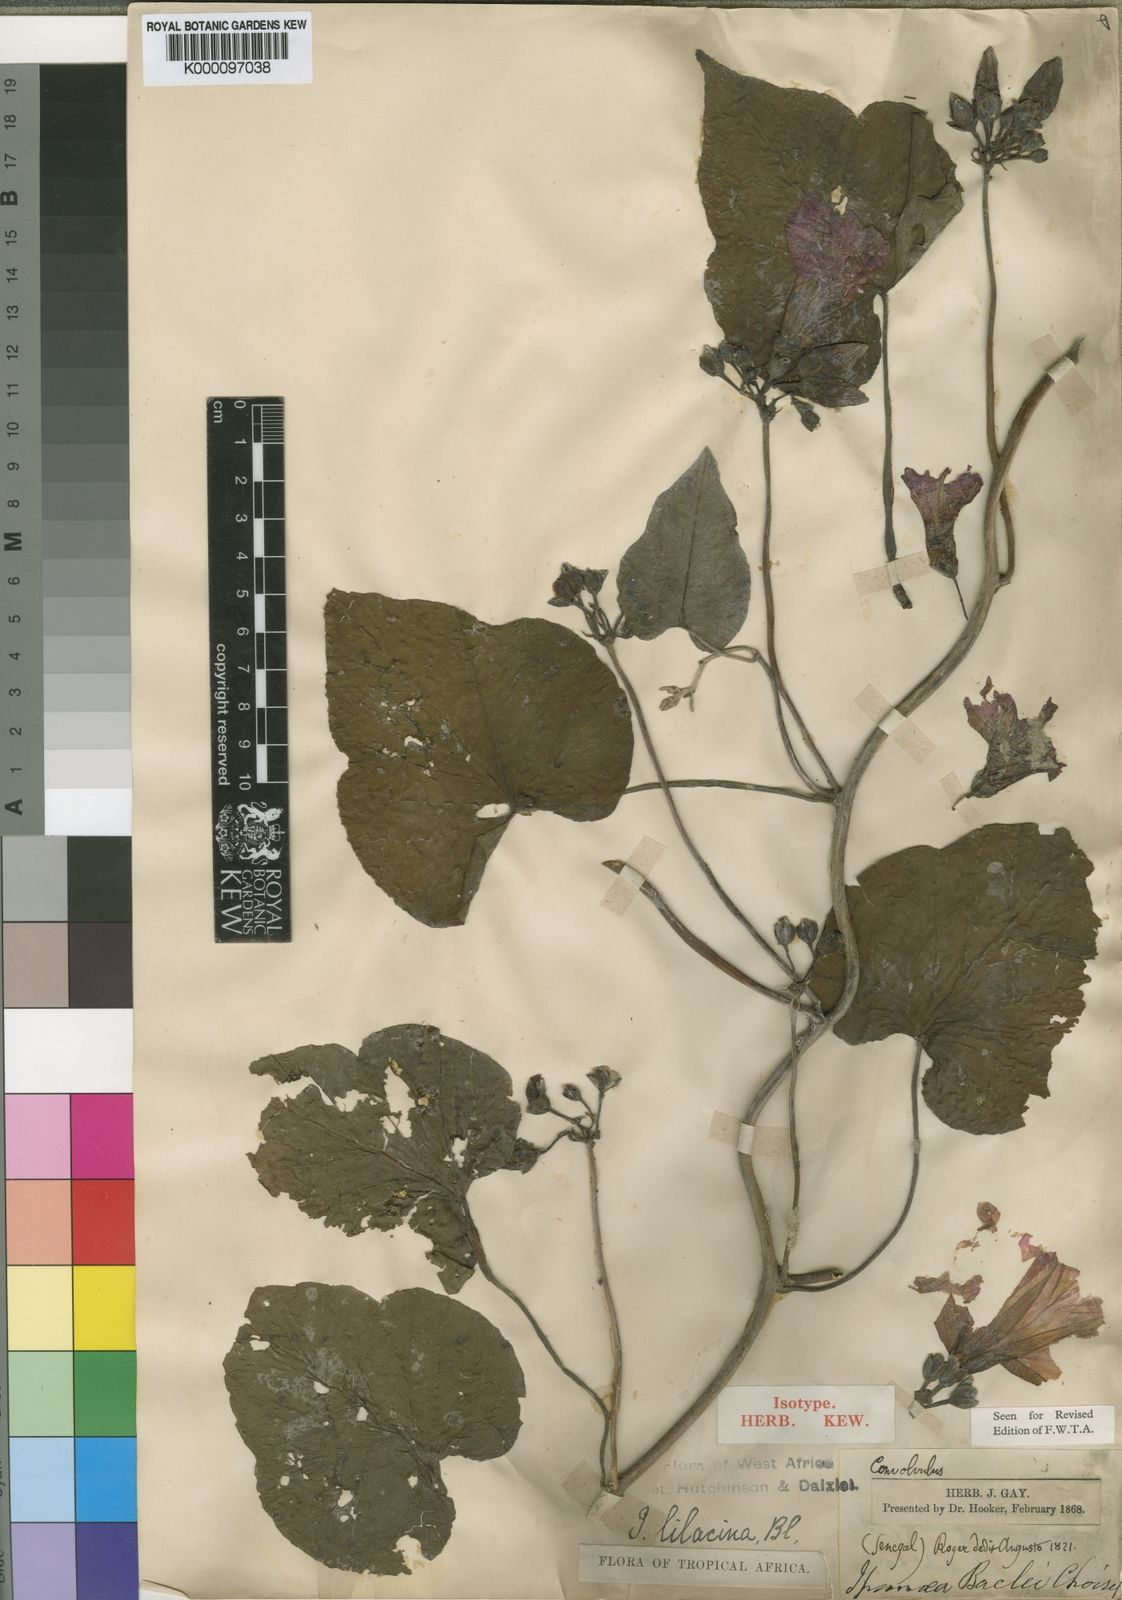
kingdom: Plantae
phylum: Tracheophyta
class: Magnoliopsida
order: Solanales
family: Convolvulaceae
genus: Ipomoea
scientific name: Ipomoea rubens
